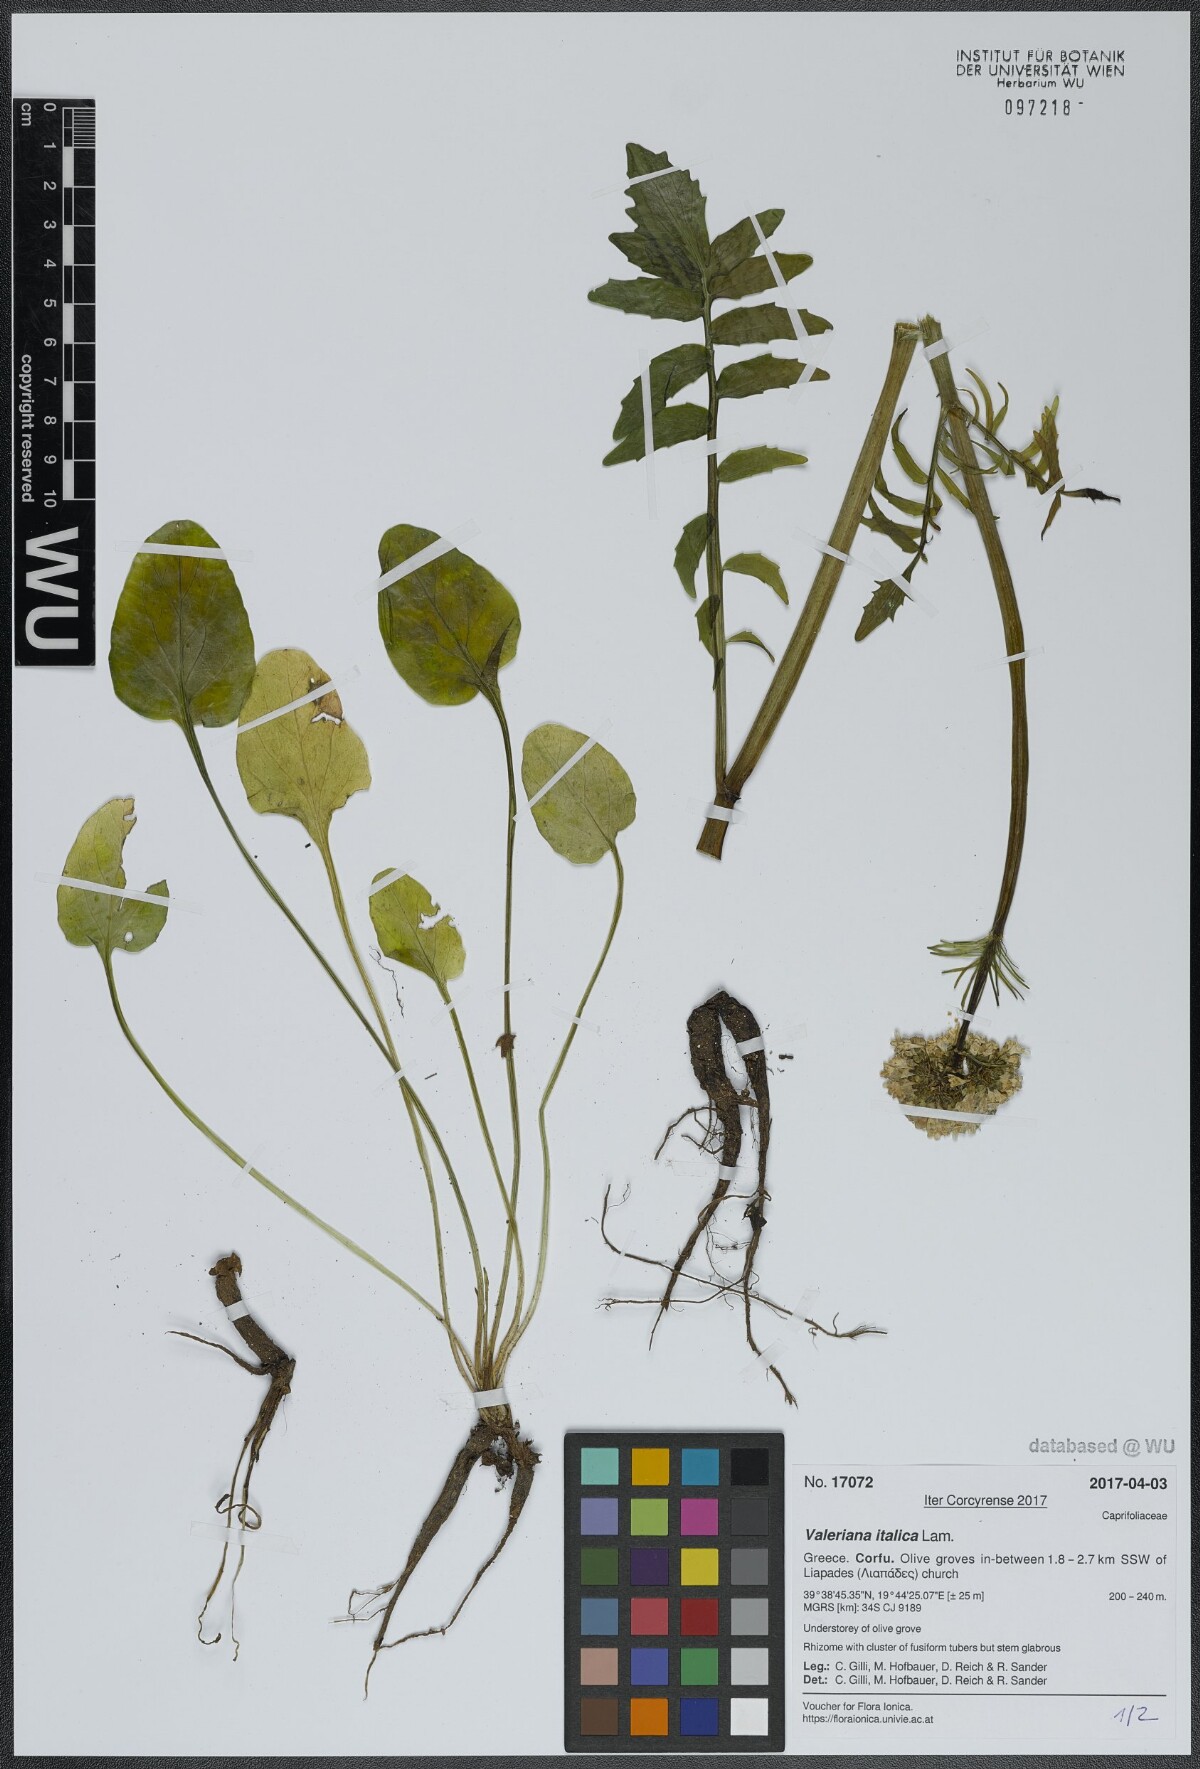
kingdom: Plantae
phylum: Tracheophyta
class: Magnoliopsida
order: Dipsacales
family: Caprifoliaceae
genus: Valeriana
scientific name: Valeriana dioscoridis
